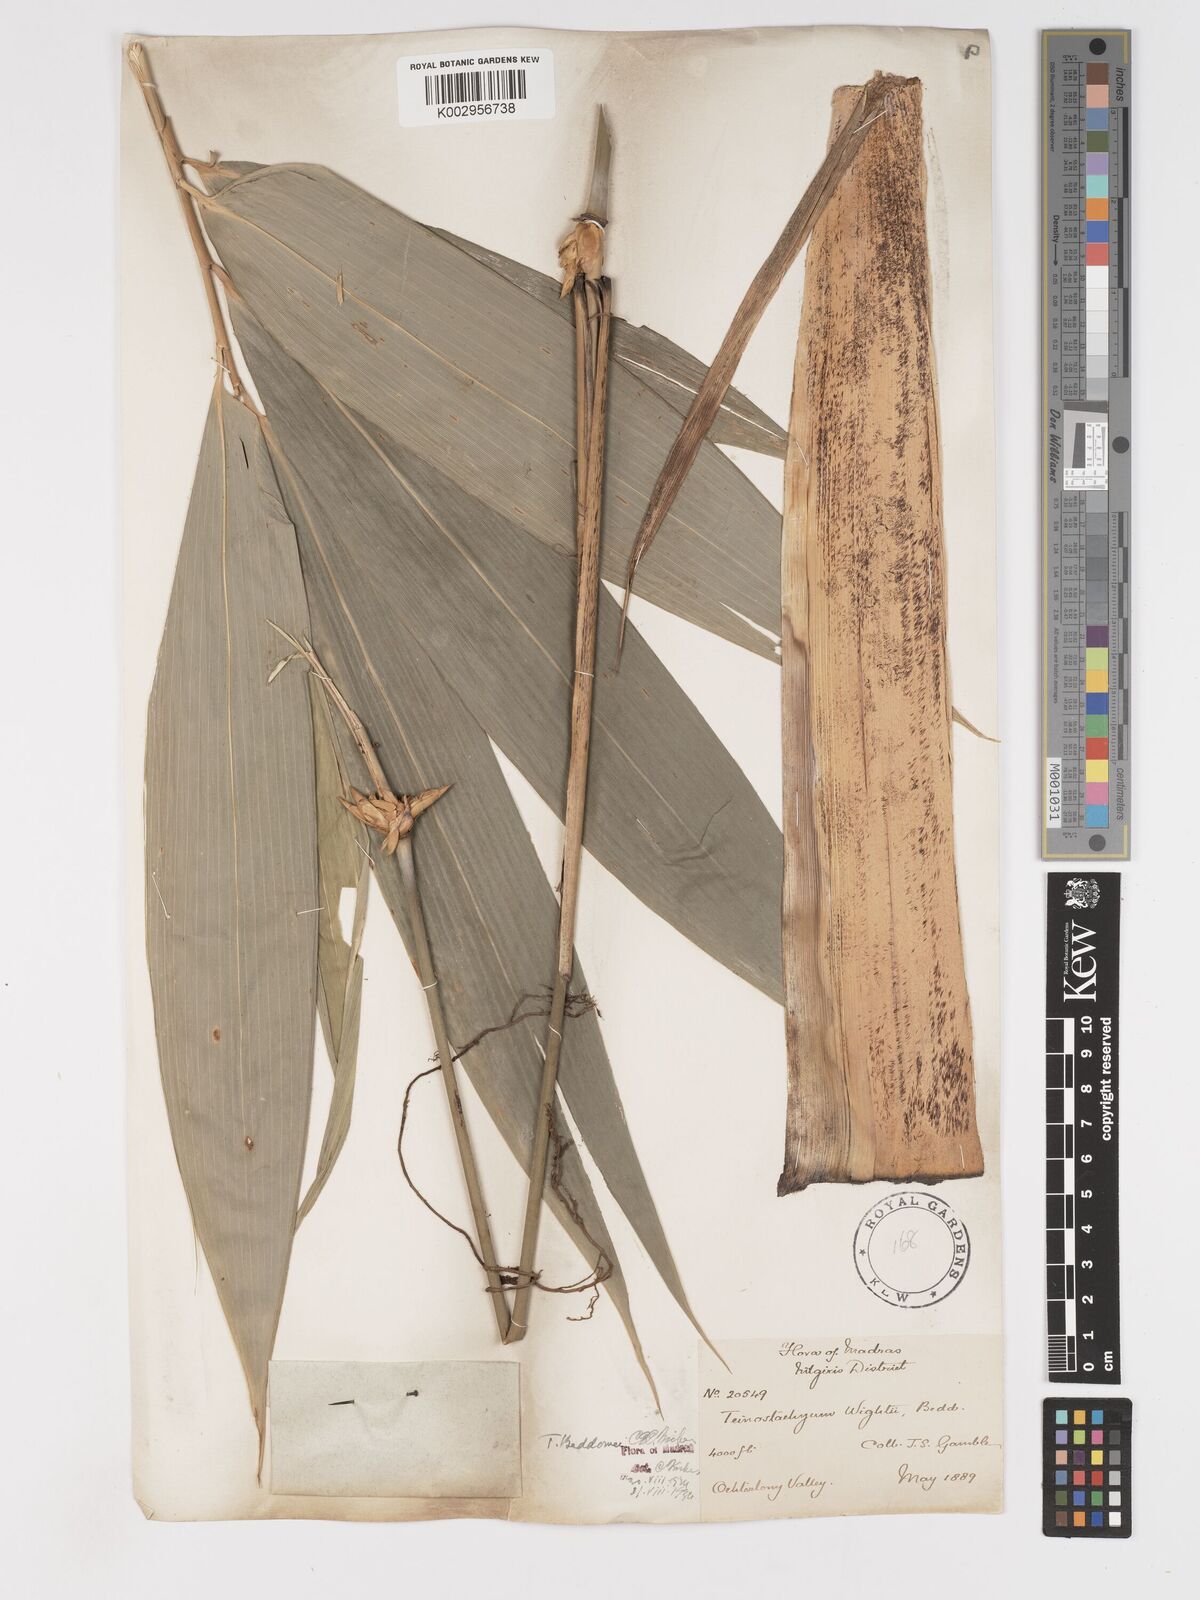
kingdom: Plantae
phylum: Tracheophyta
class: Liliopsida
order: Poales
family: Poaceae
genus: Ochlandra
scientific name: Ochlandra wightii
